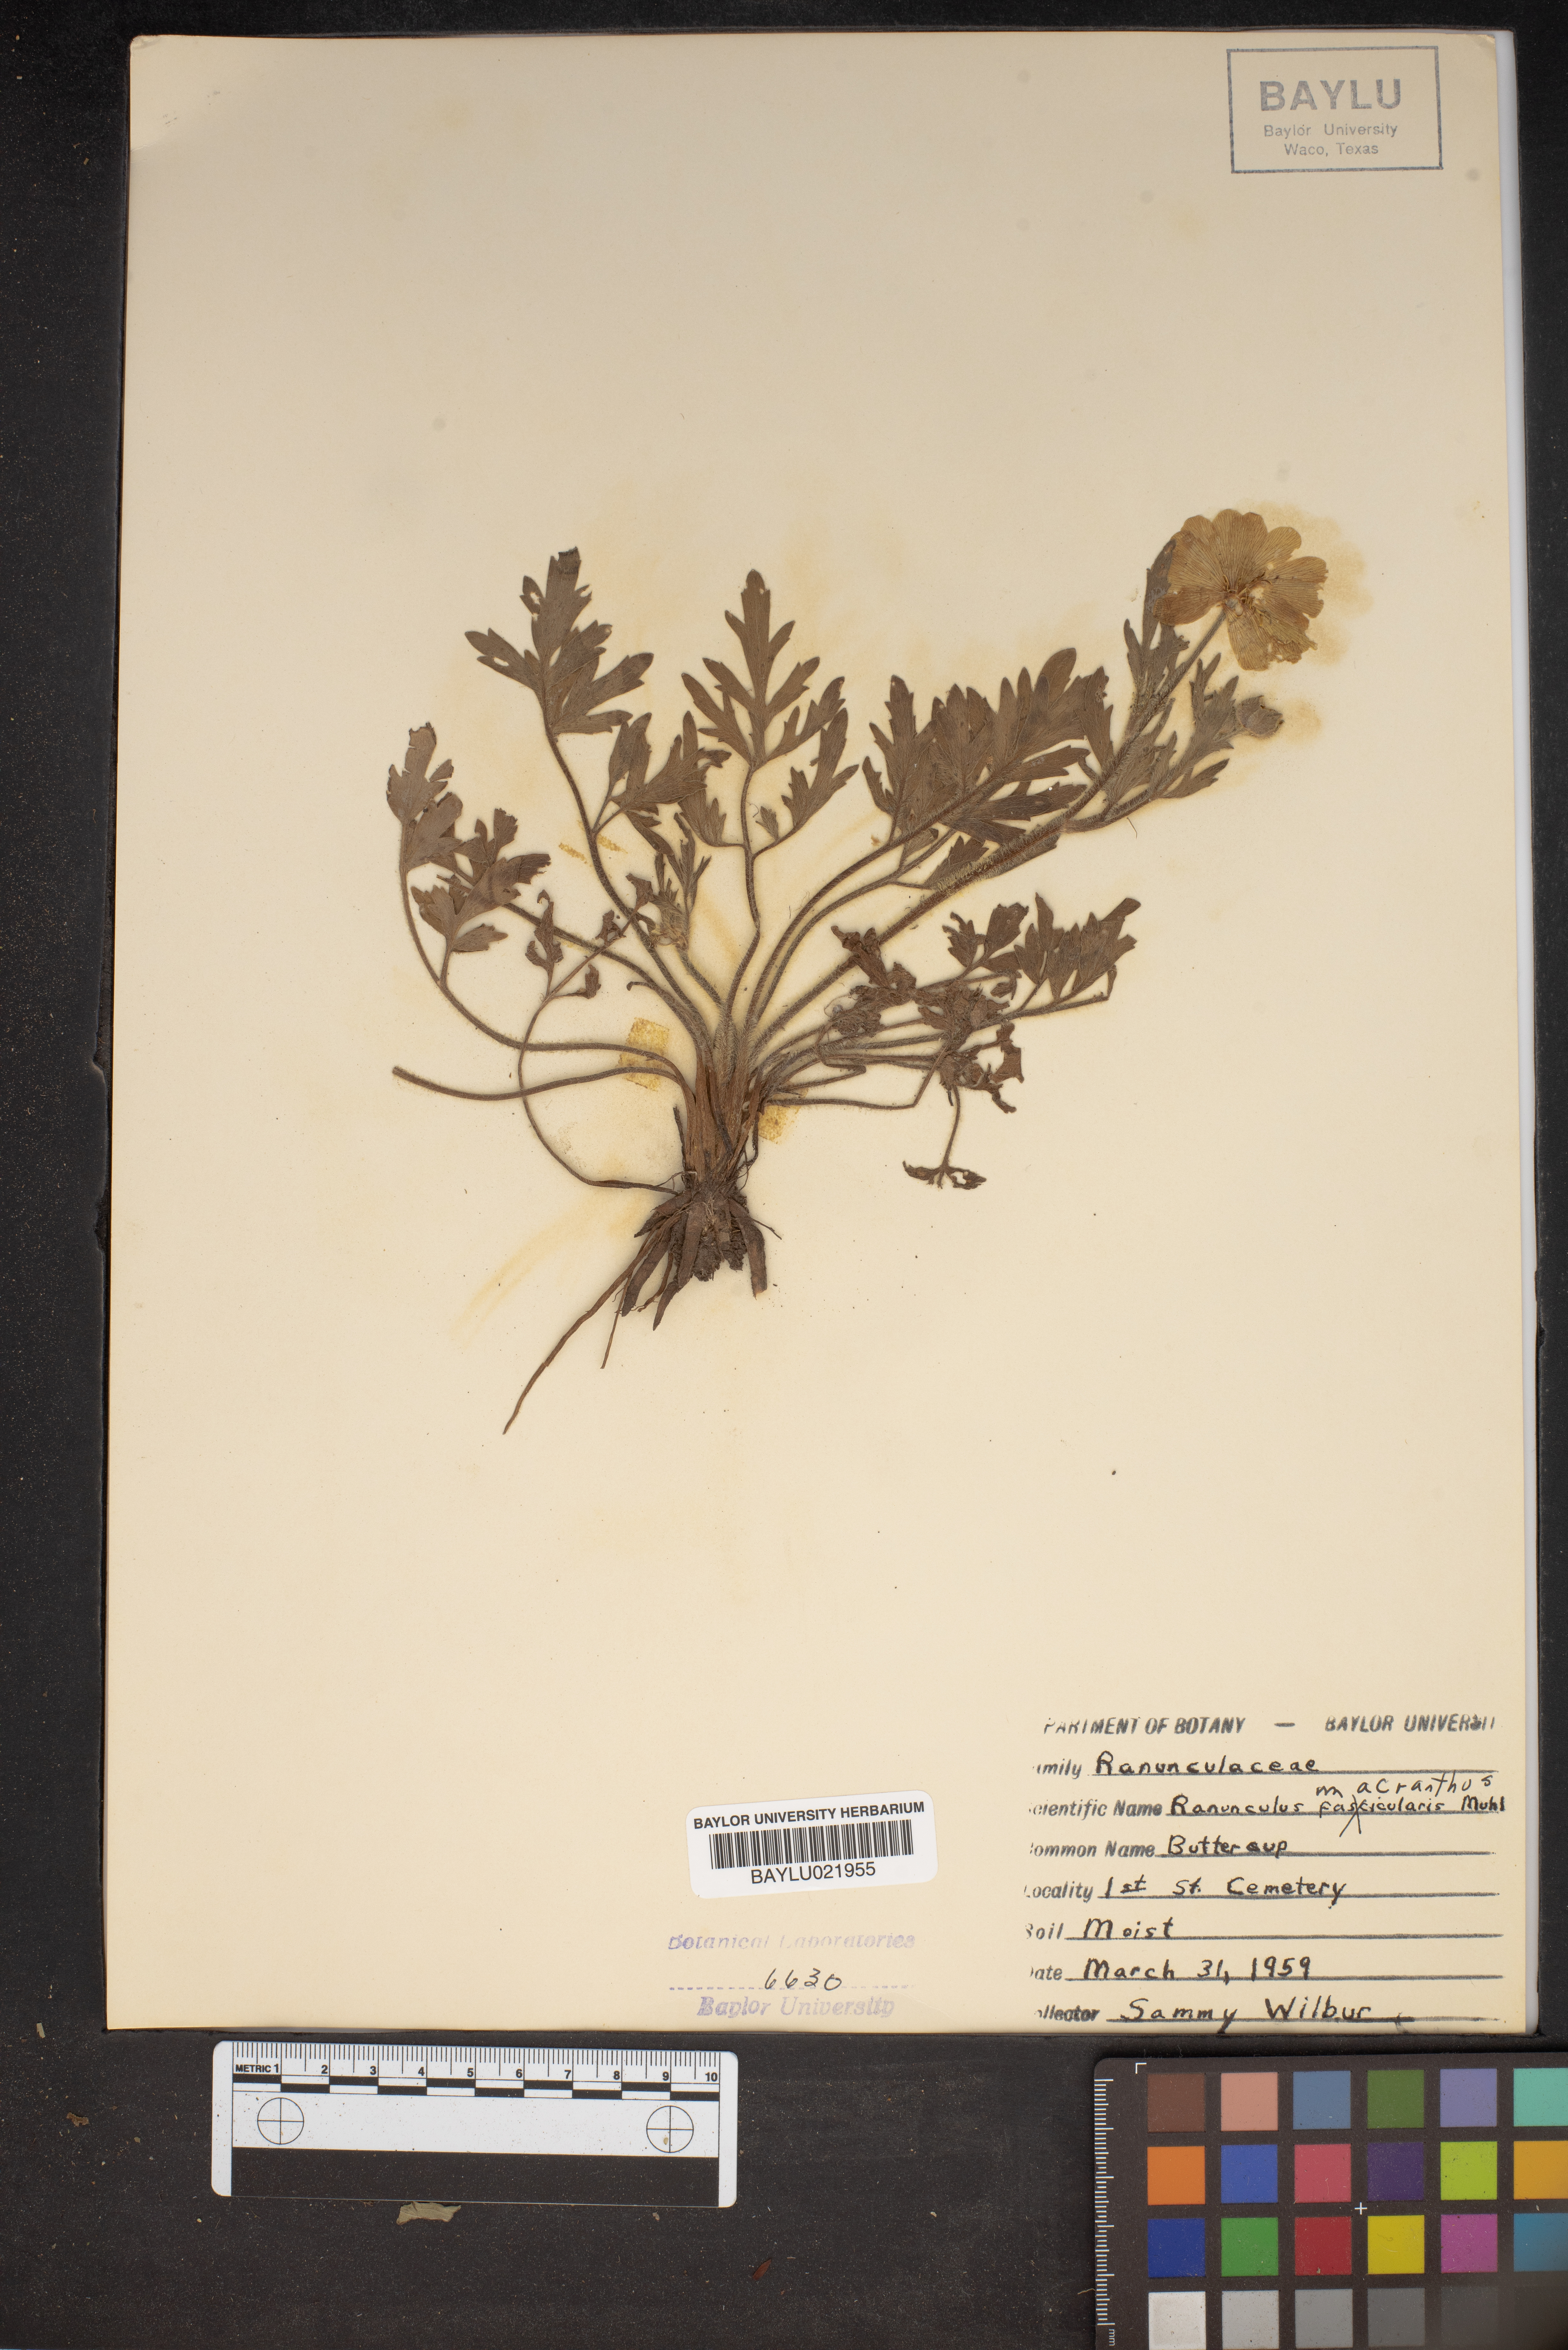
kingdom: Plantae
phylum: Tracheophyta
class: Magnoliopsida
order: Ranunculales
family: Ranunculaceae
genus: Ranunculus
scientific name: Ranunculus macranthus
